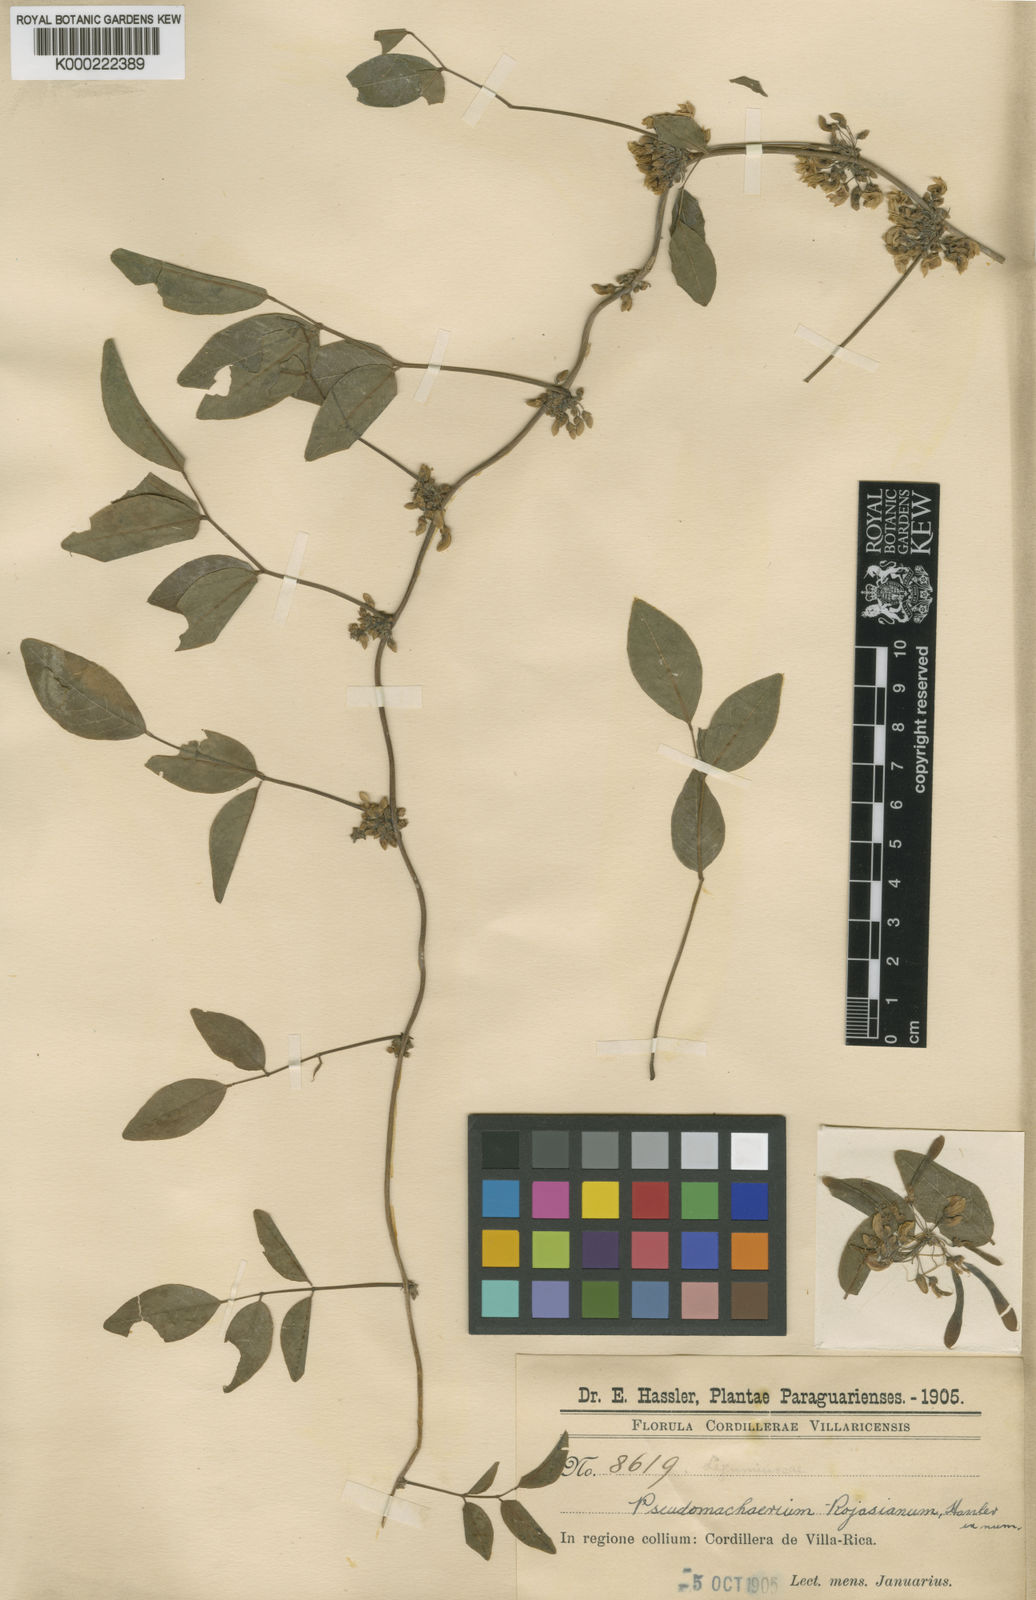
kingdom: Plantae
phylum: Tracheophyta
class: Magnoliopsida
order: Fabales
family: Fabaceae
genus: Nissolia
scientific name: Nissolia fruticosa
